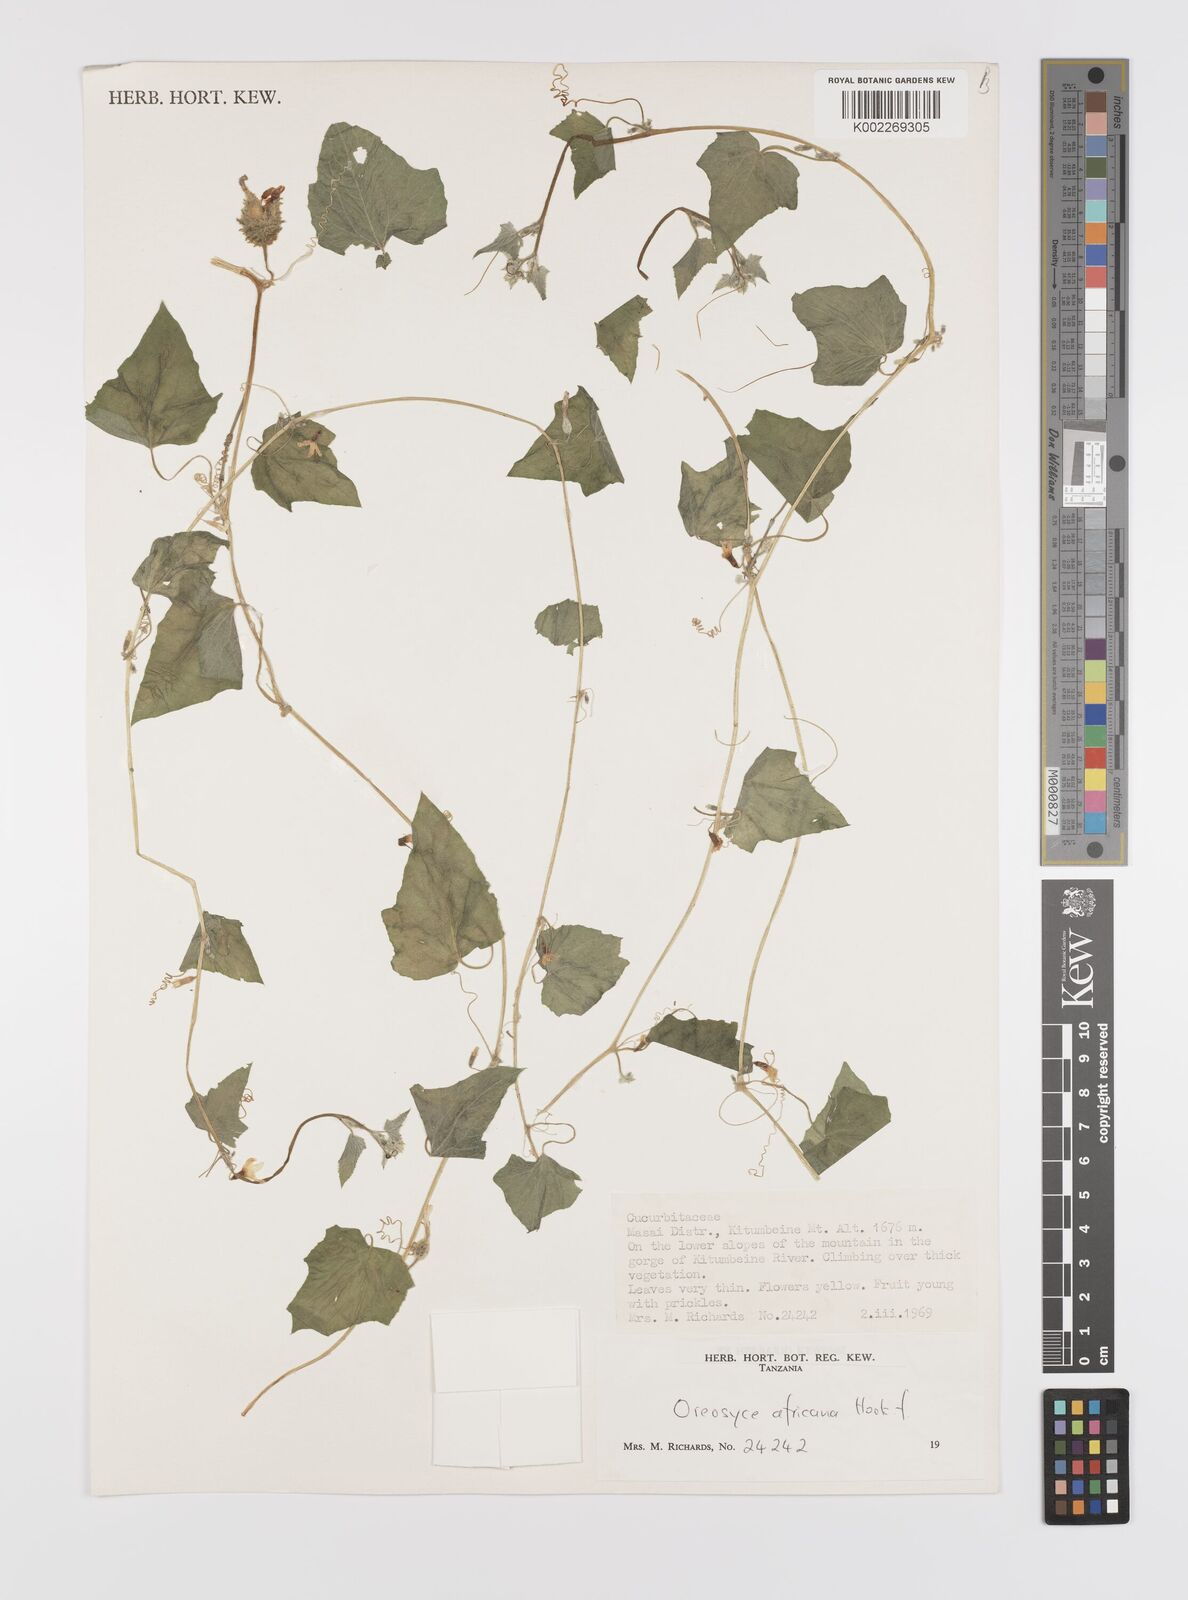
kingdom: Plantae
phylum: Tracheophyta
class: Magnoliopsida
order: Cucurbitales
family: Cucurbitaceae
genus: Cucumis
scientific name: Cucumis oreosyce
